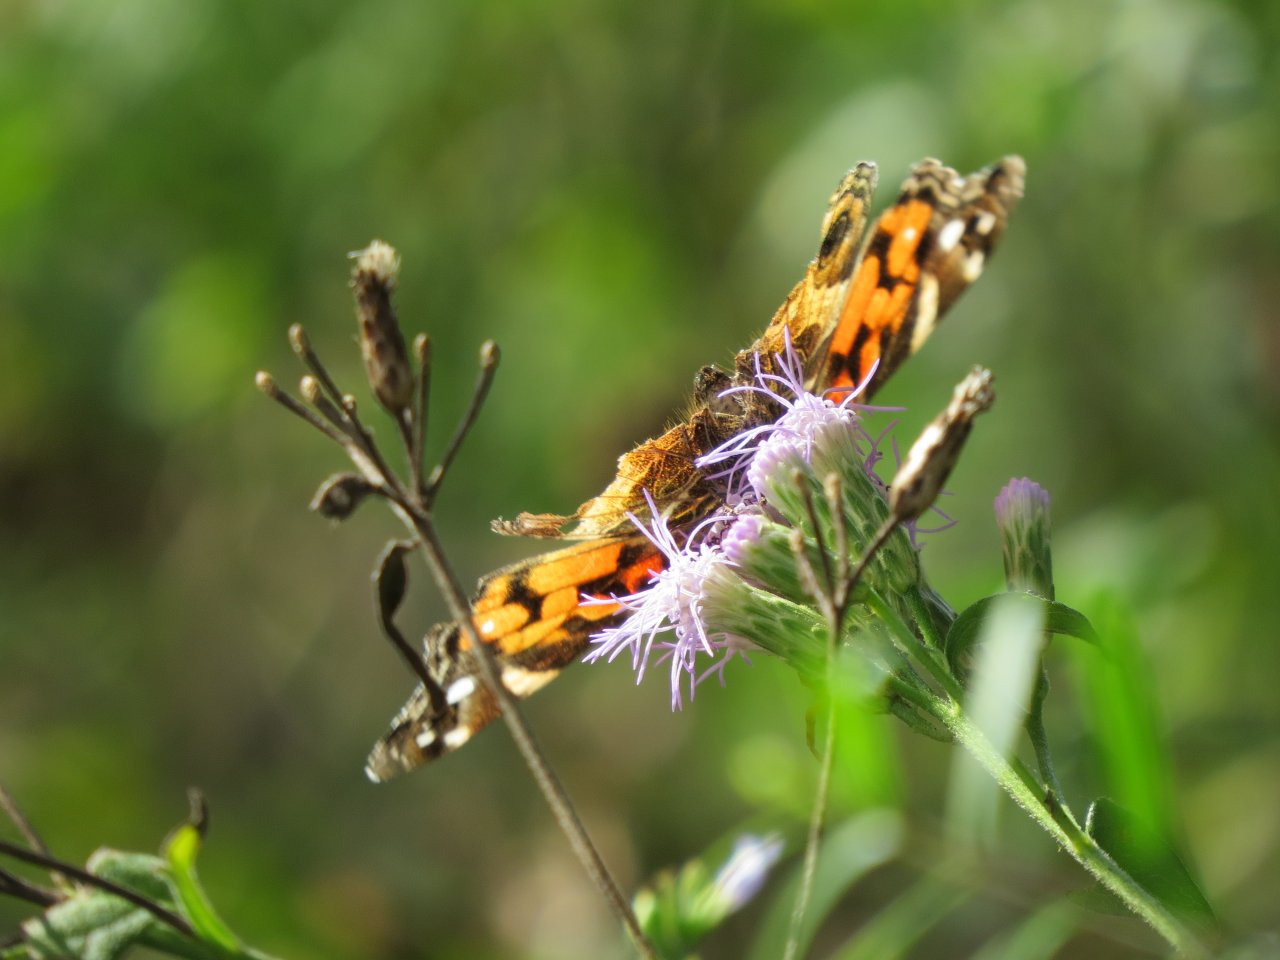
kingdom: Animalia
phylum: Arthropoda
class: Insecta
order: Lepidoptera
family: Nymphalidae
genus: Vanessa
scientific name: Vanessa virginiensis
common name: American Lady
